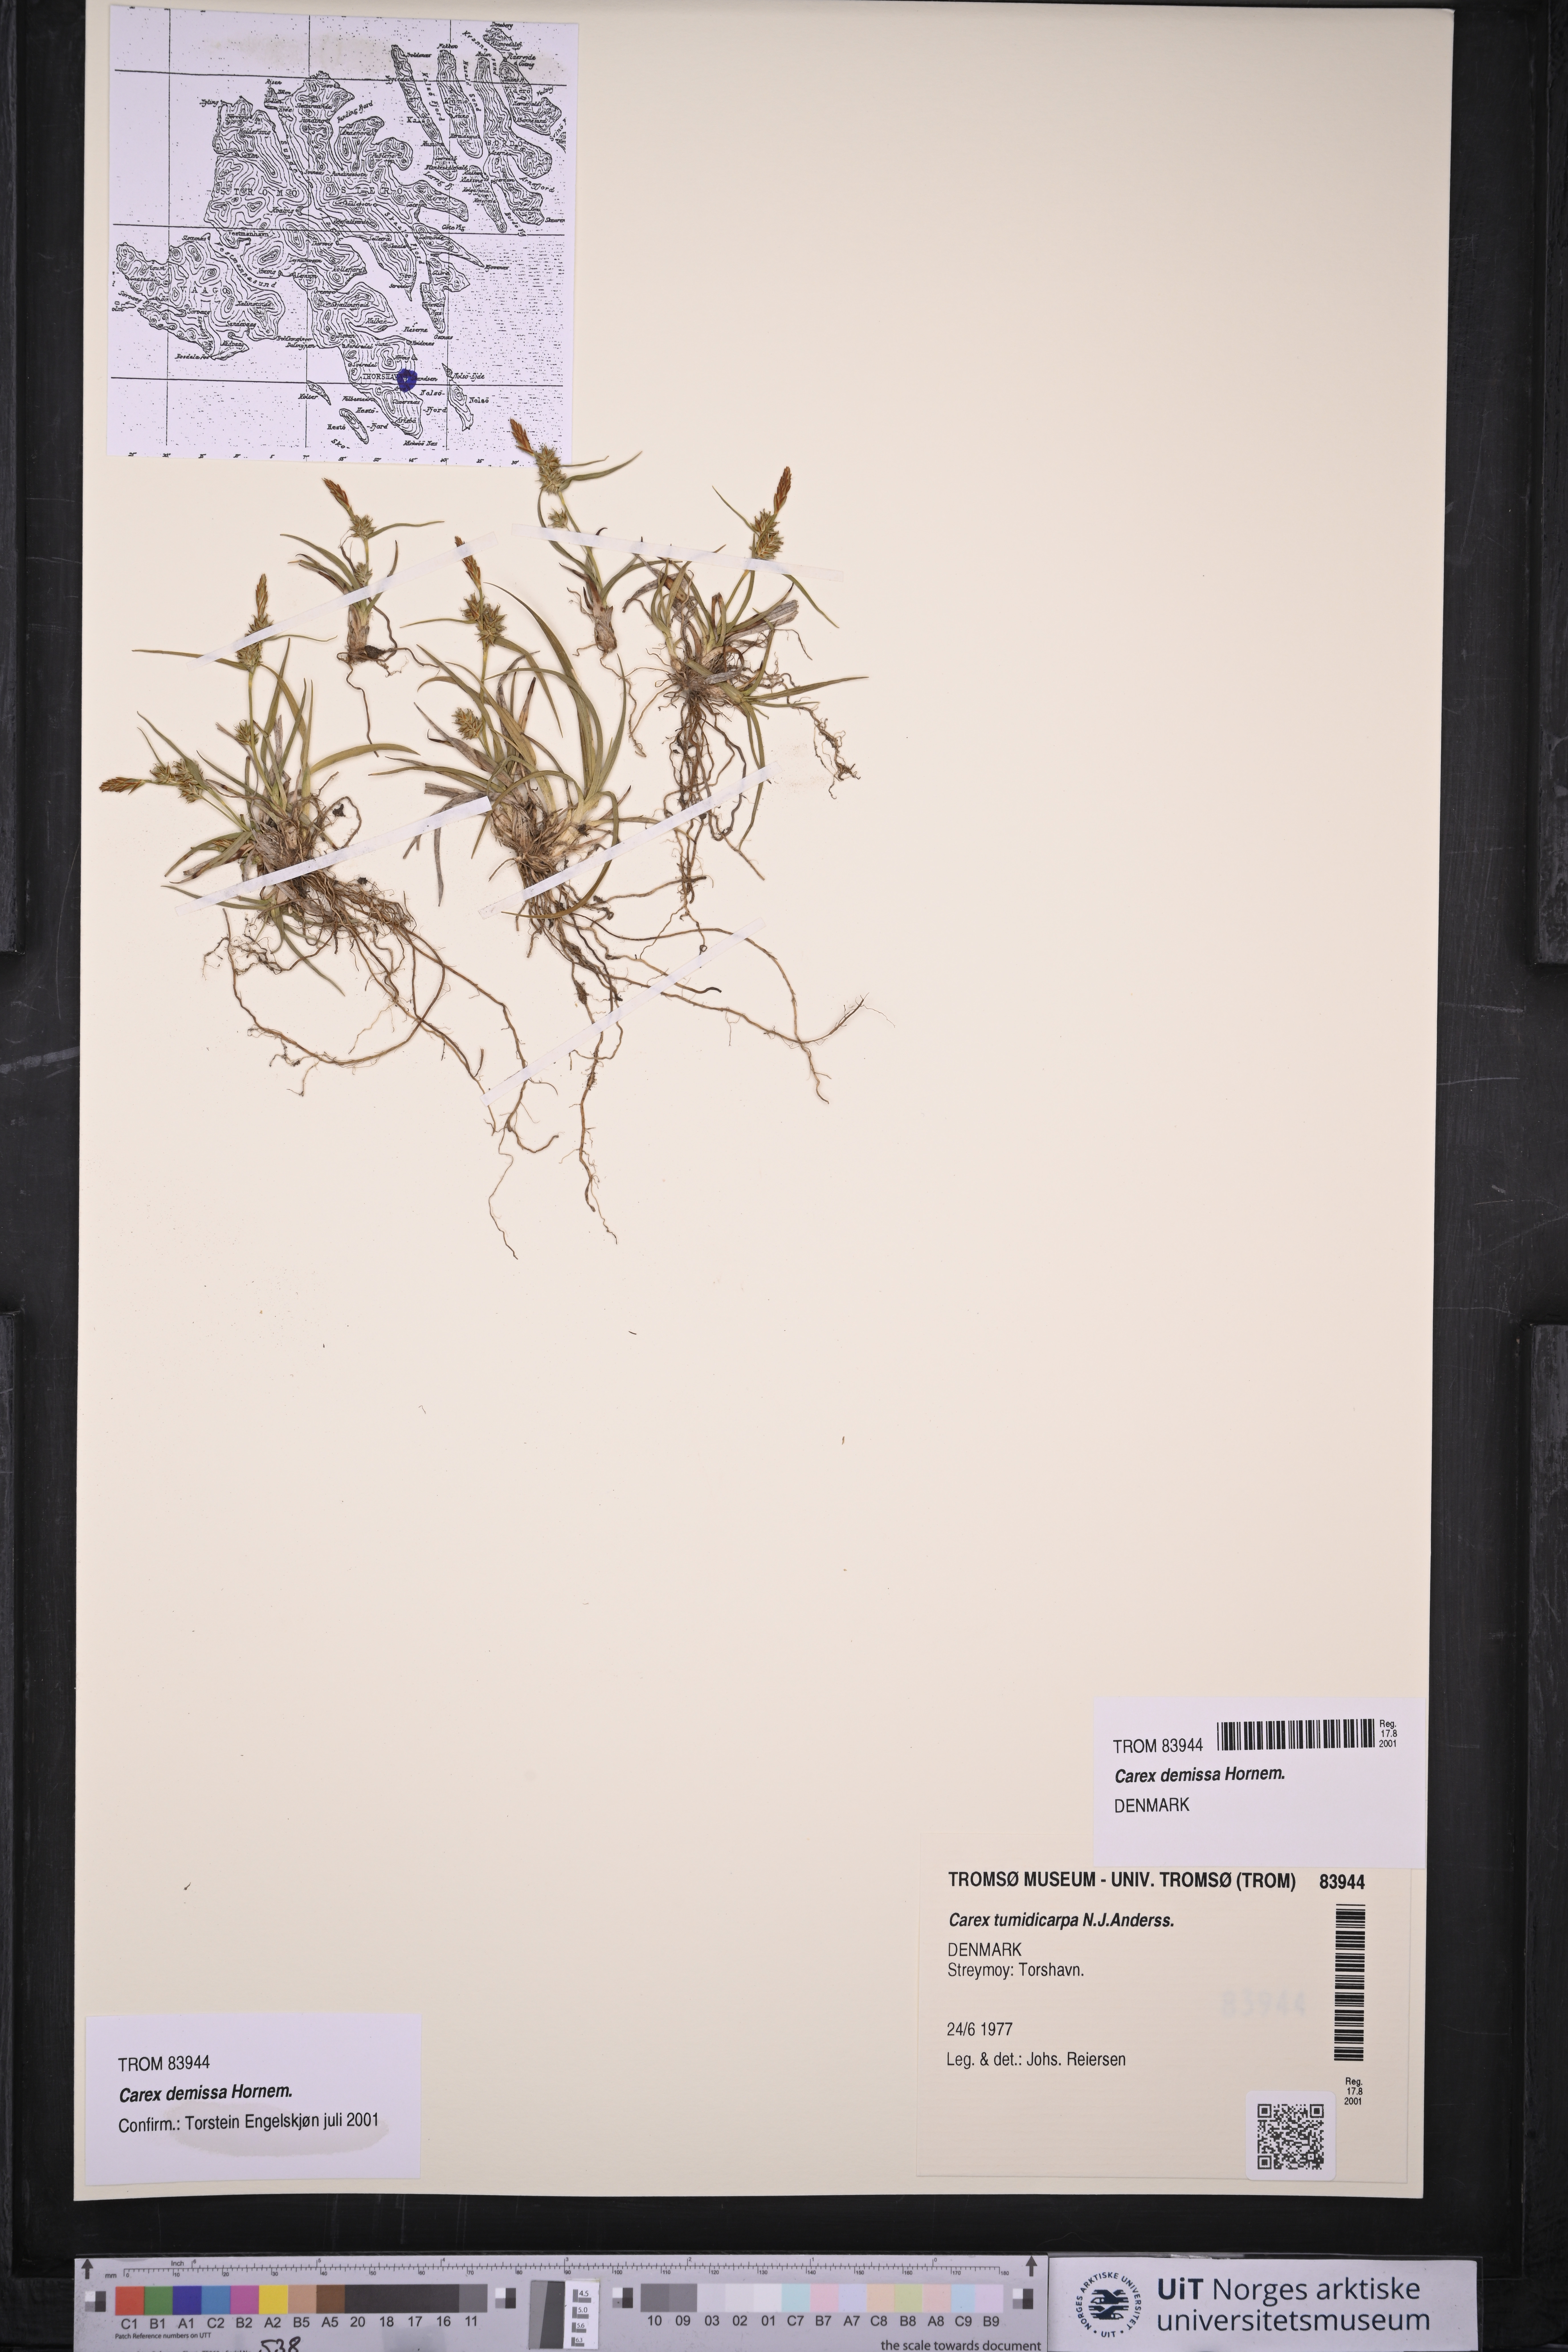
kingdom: Plantae
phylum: Tracheophyta
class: Liliopsida
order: Poales
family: Cyperaceae
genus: Carex
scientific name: Carex demissa
